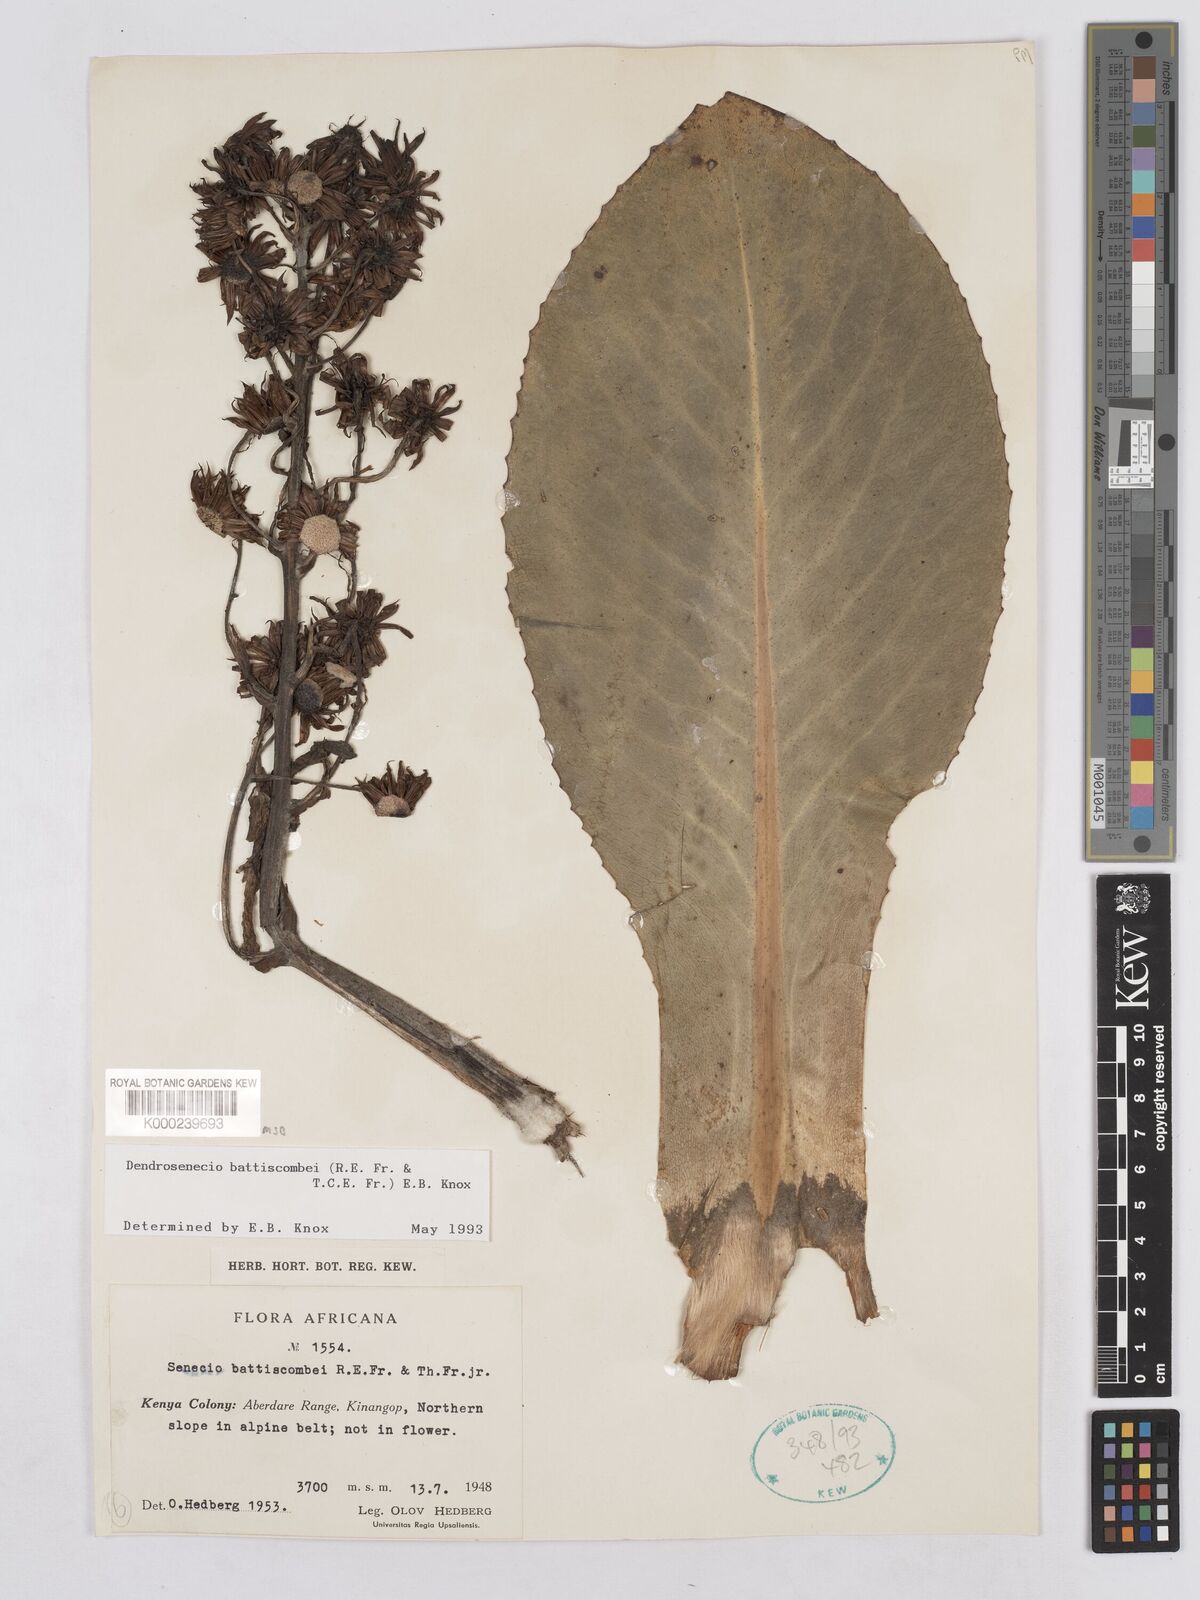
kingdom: Plantae
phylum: Tracheophyta
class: Magnoliopsida
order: Asterales
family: Asteraceae
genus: Dendrosenecio
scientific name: Dendrosenecio battiscombei
